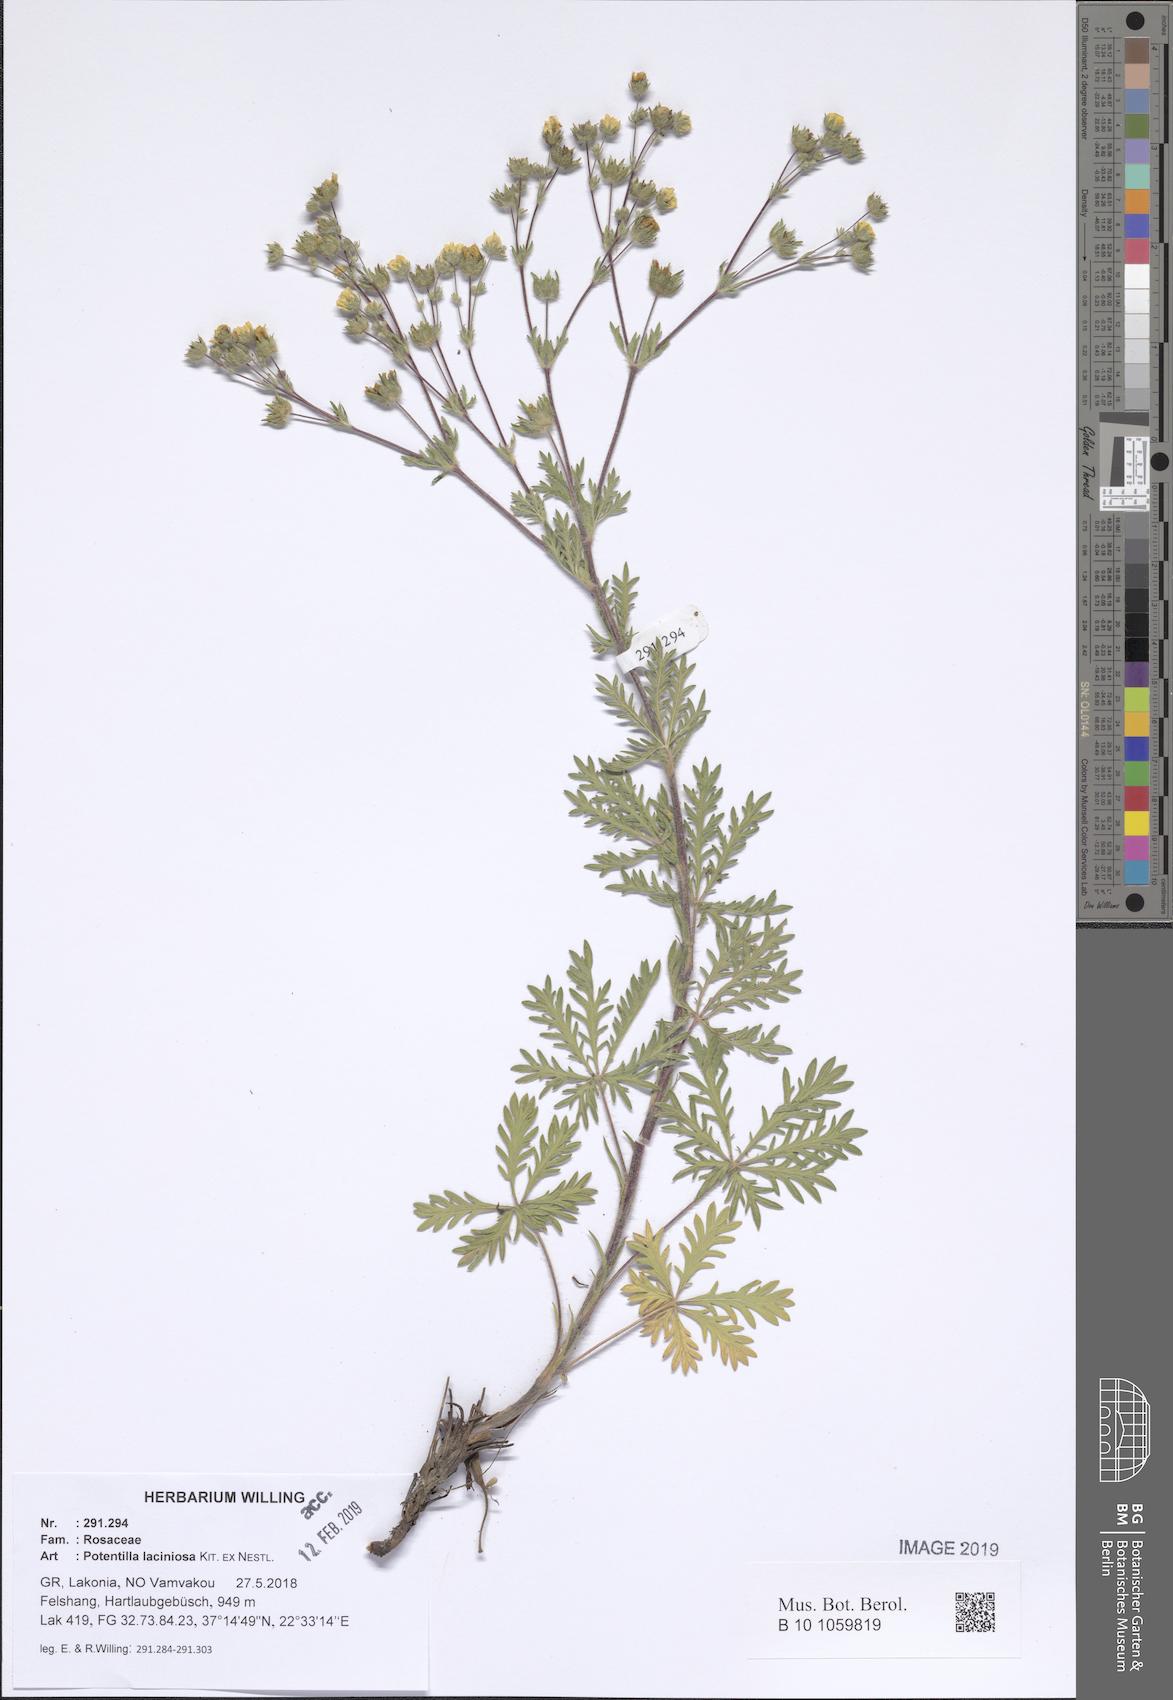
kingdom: Plantae
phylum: Tracheophyta
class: Magnoliopsida
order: Rosales
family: Rosaceae
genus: Potentilla
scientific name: Potentilla recta
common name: Sulphur cinquefoil
